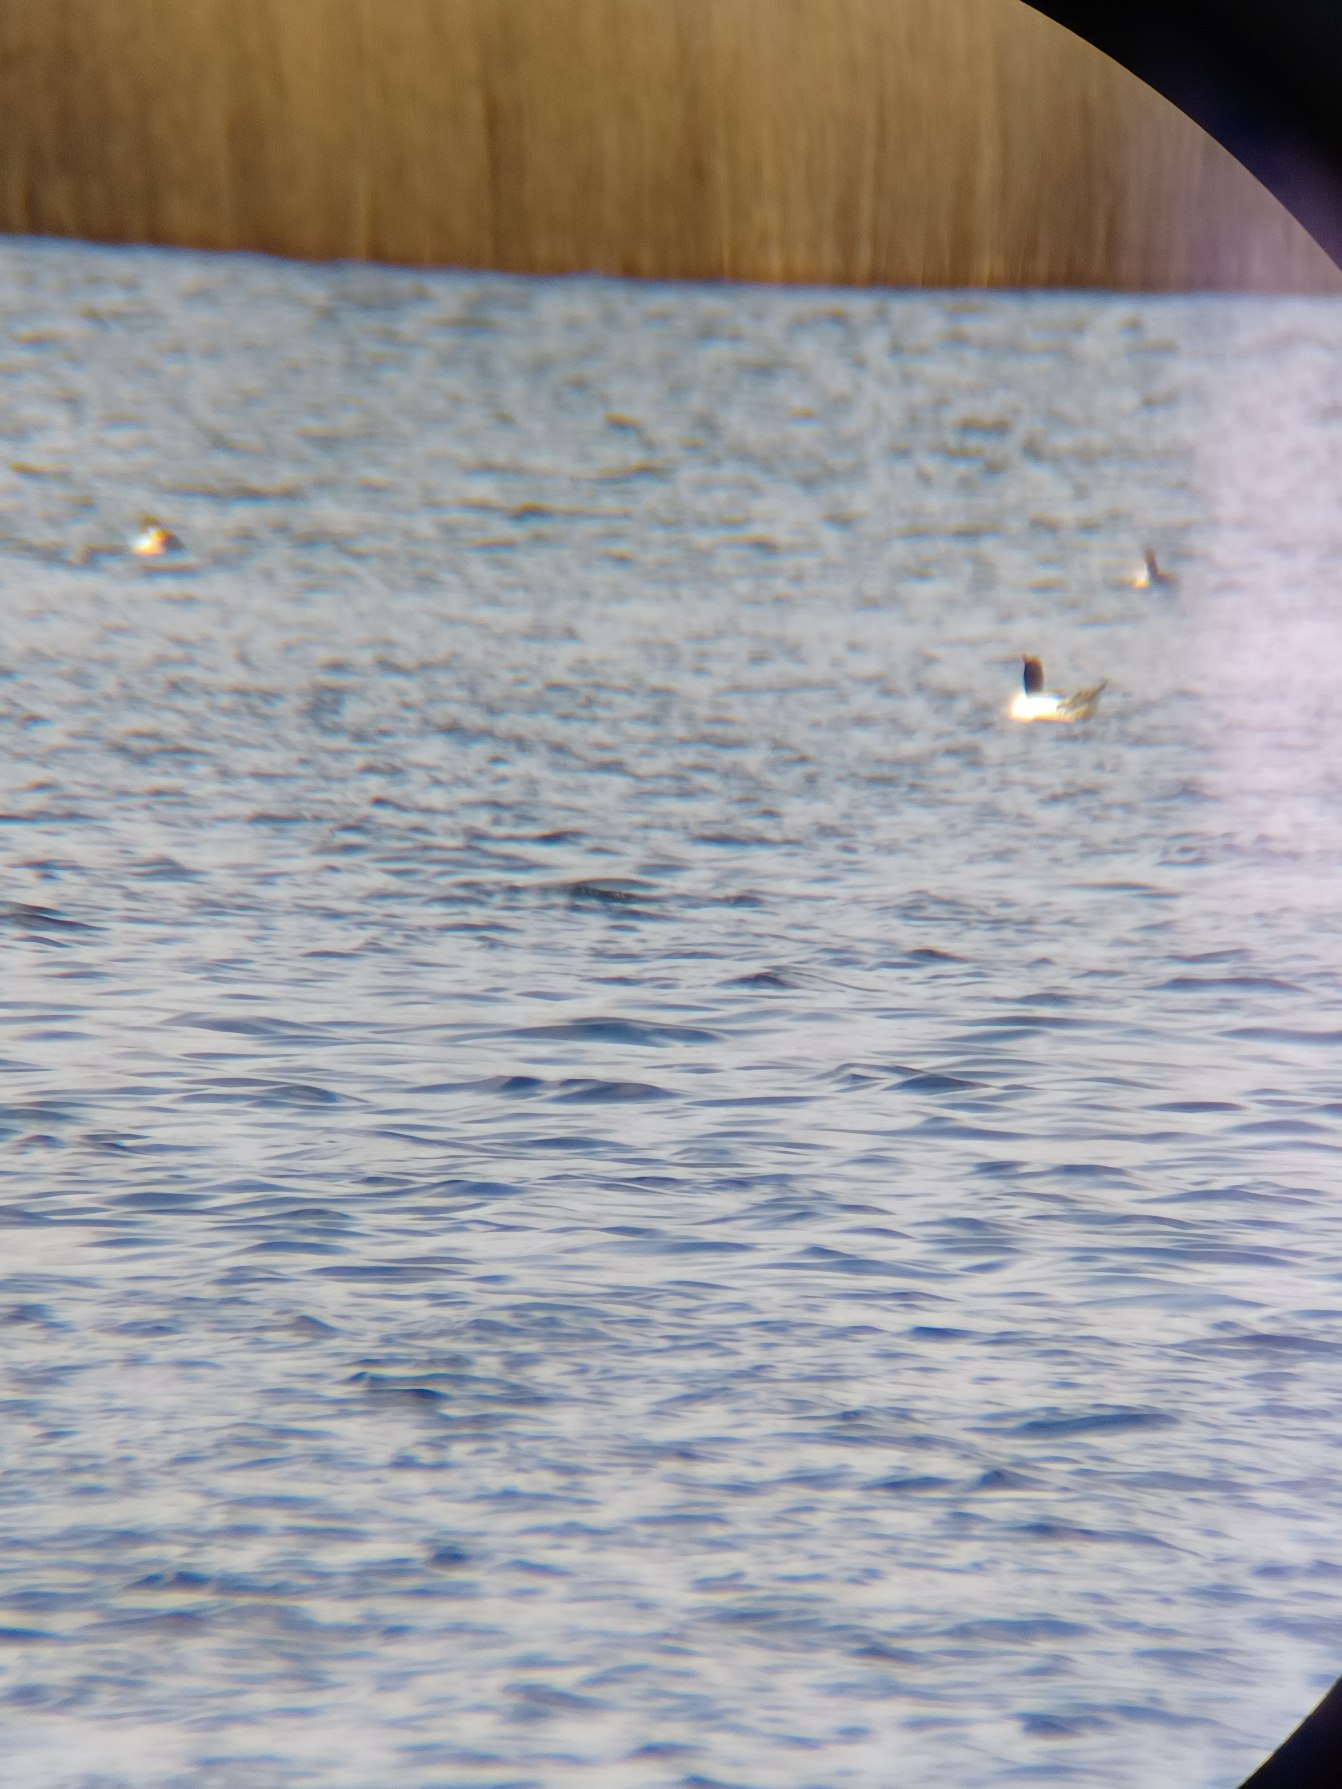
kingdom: Animalia
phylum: Chordata
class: Aves
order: Anseriformes
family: Anatidae
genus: Mergus
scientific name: Mergus merganser
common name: Stor skallesluger
